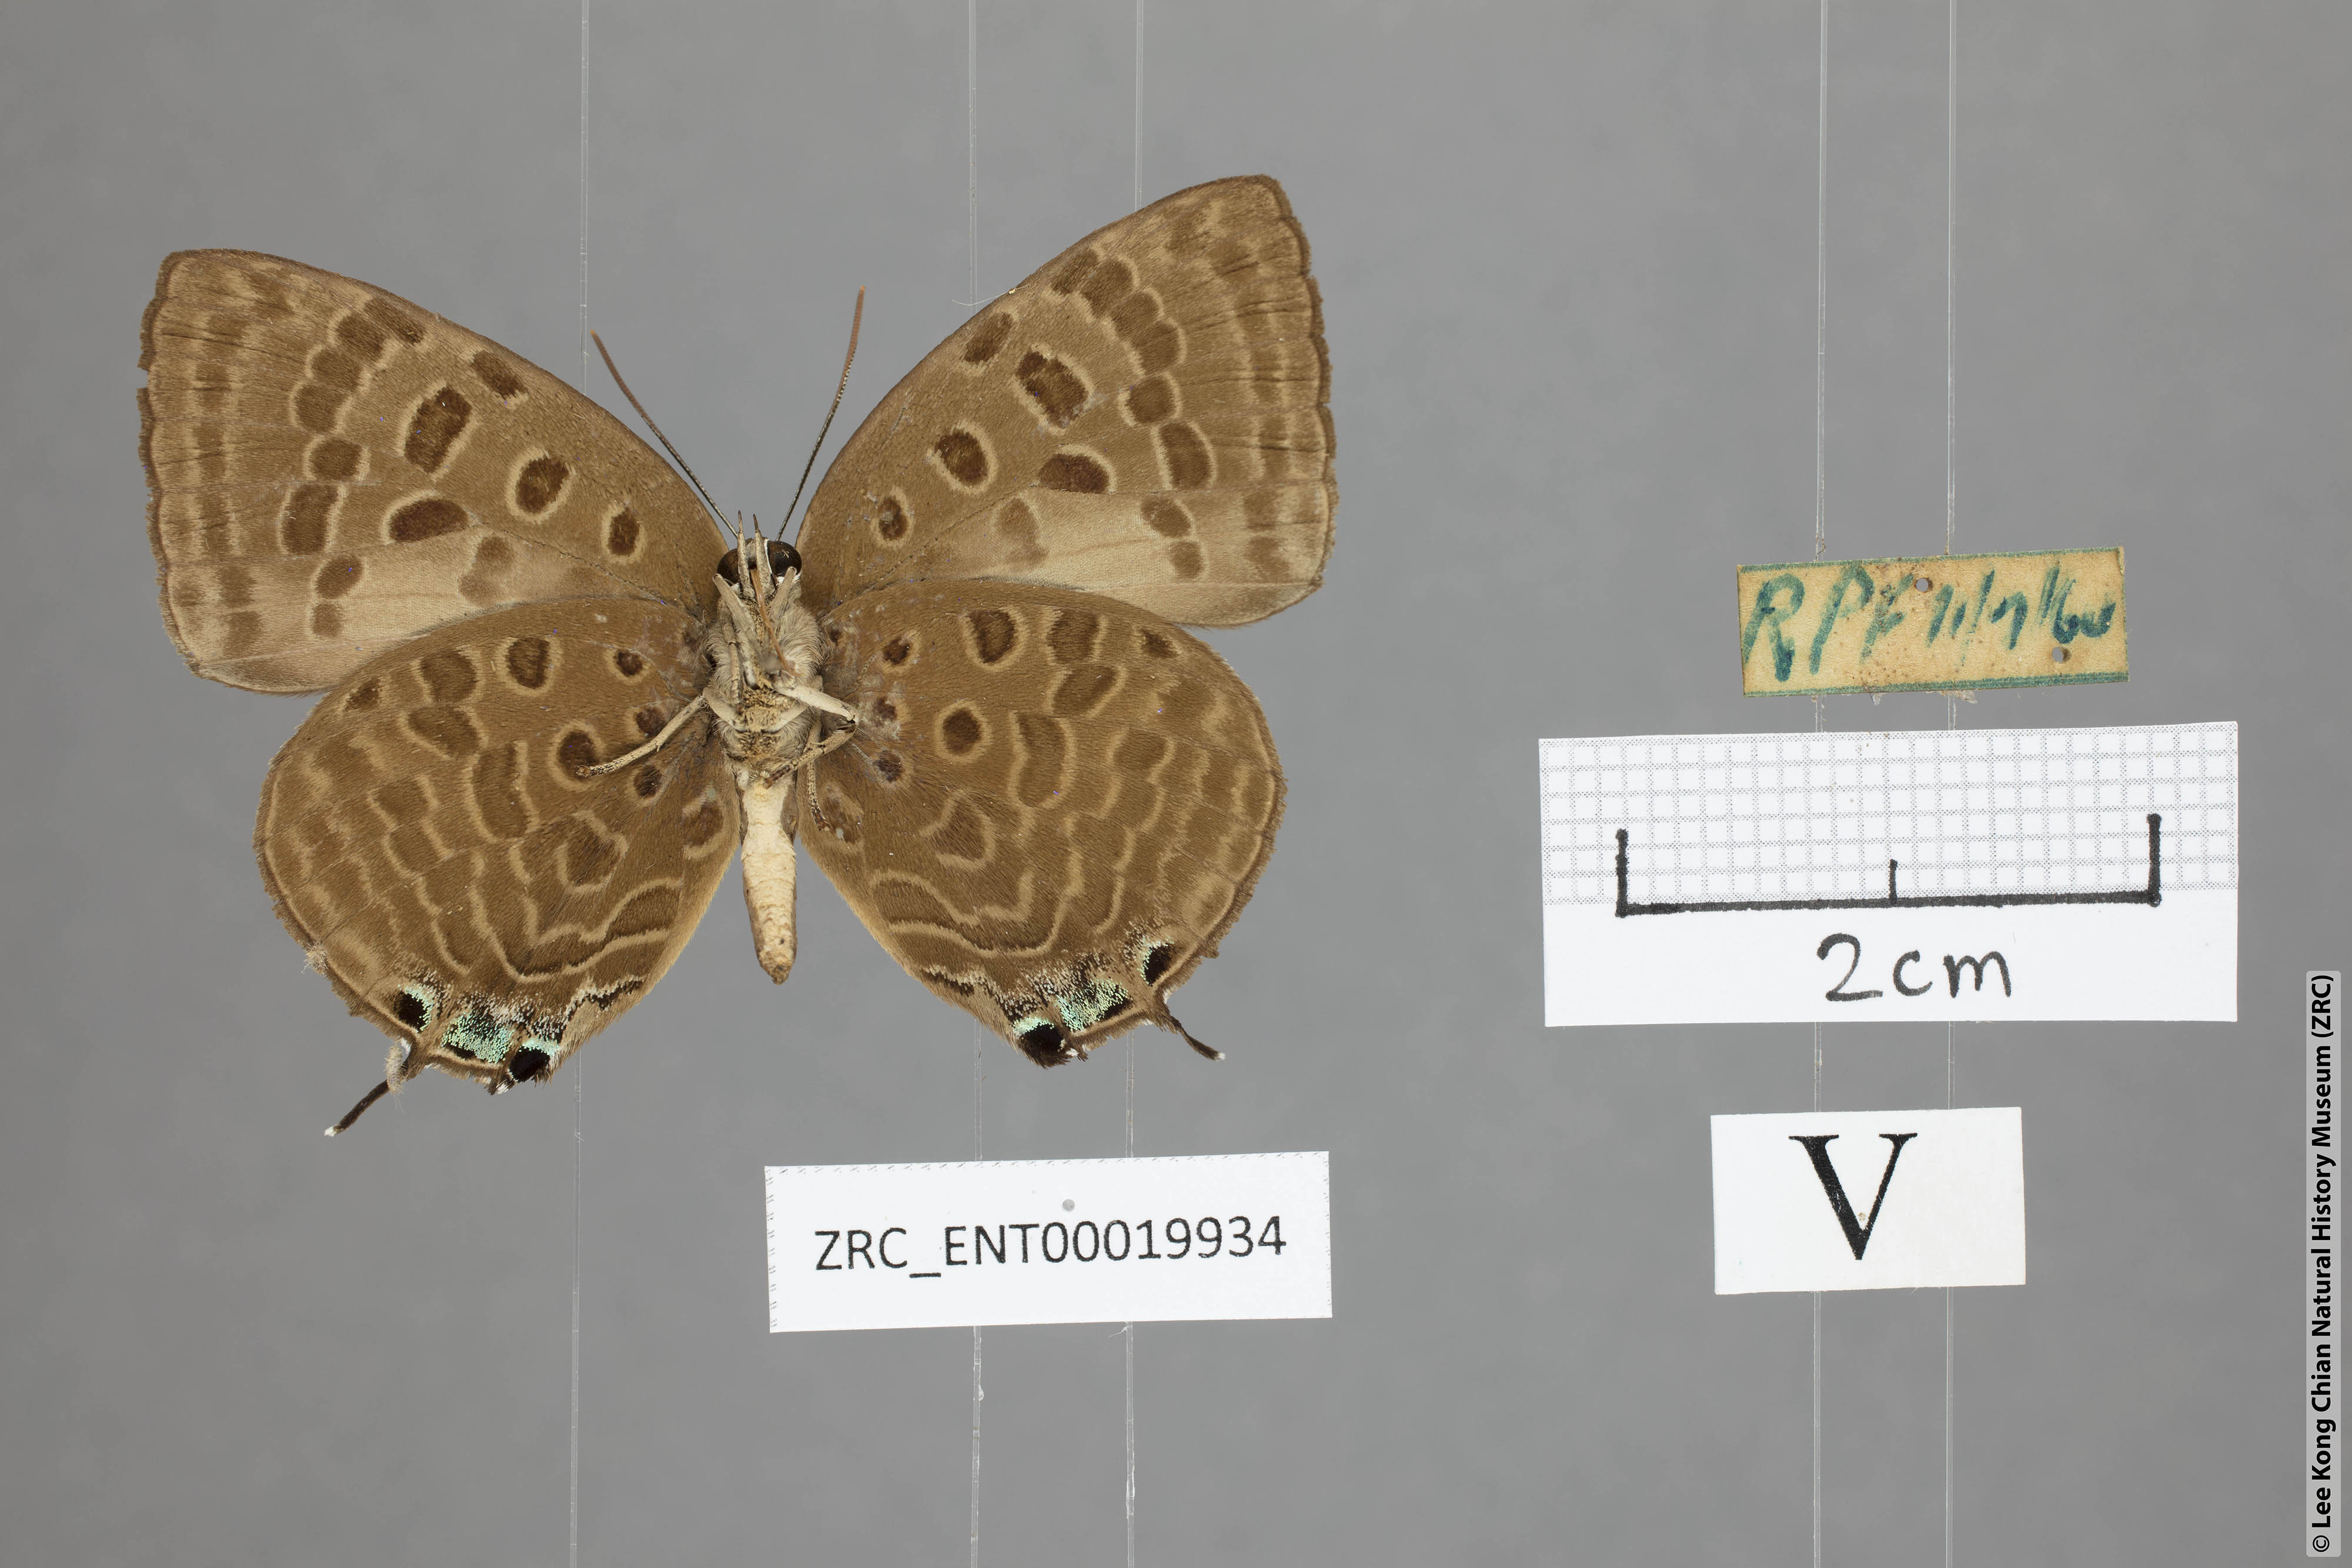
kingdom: Animalia
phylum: Arthropoda
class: Insecta
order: Lepidoptera
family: Lycaenidae
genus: Arhopala
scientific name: Arhopala zambra
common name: Zambra oakblue
